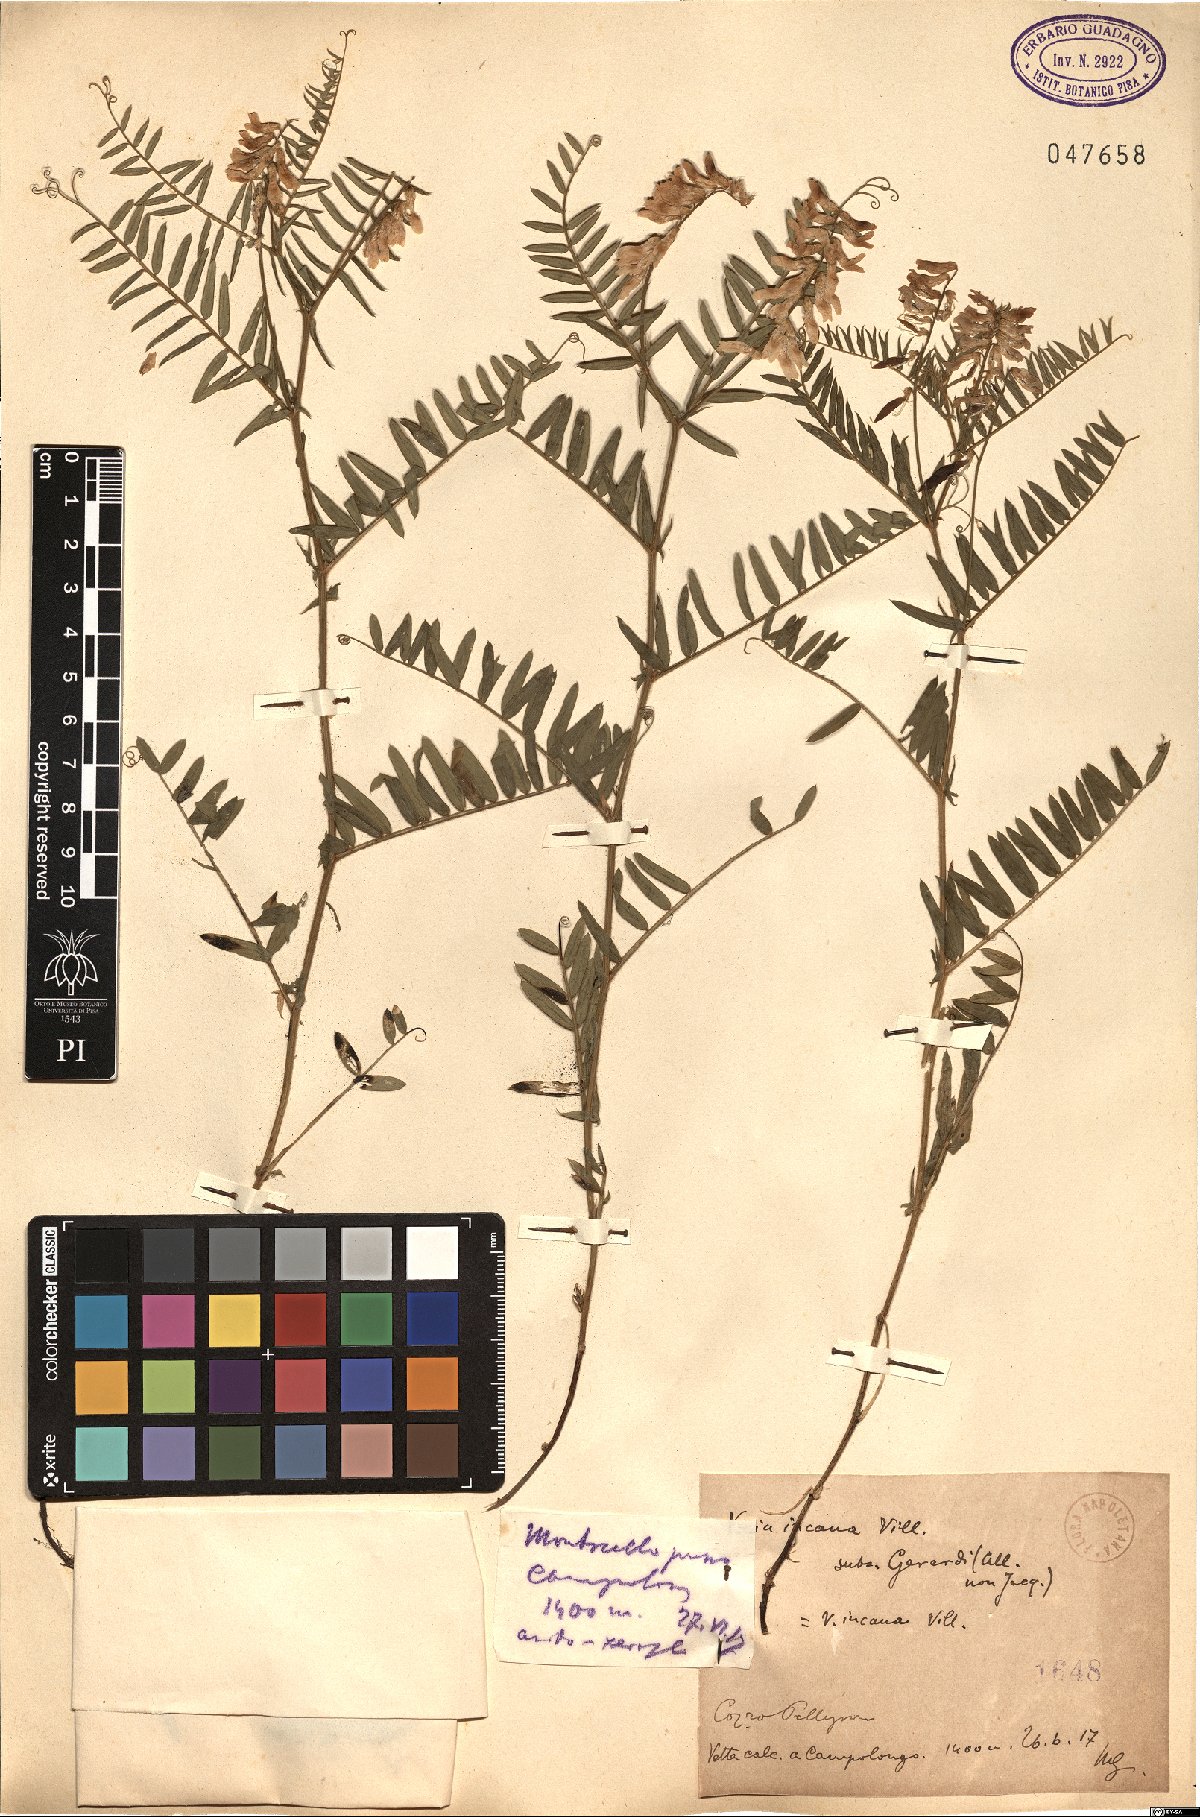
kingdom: Plantae
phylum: Tracheophyta
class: Magnoliopsida
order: Fabales
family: Fabaceae
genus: Vicia
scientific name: Vicia incana
